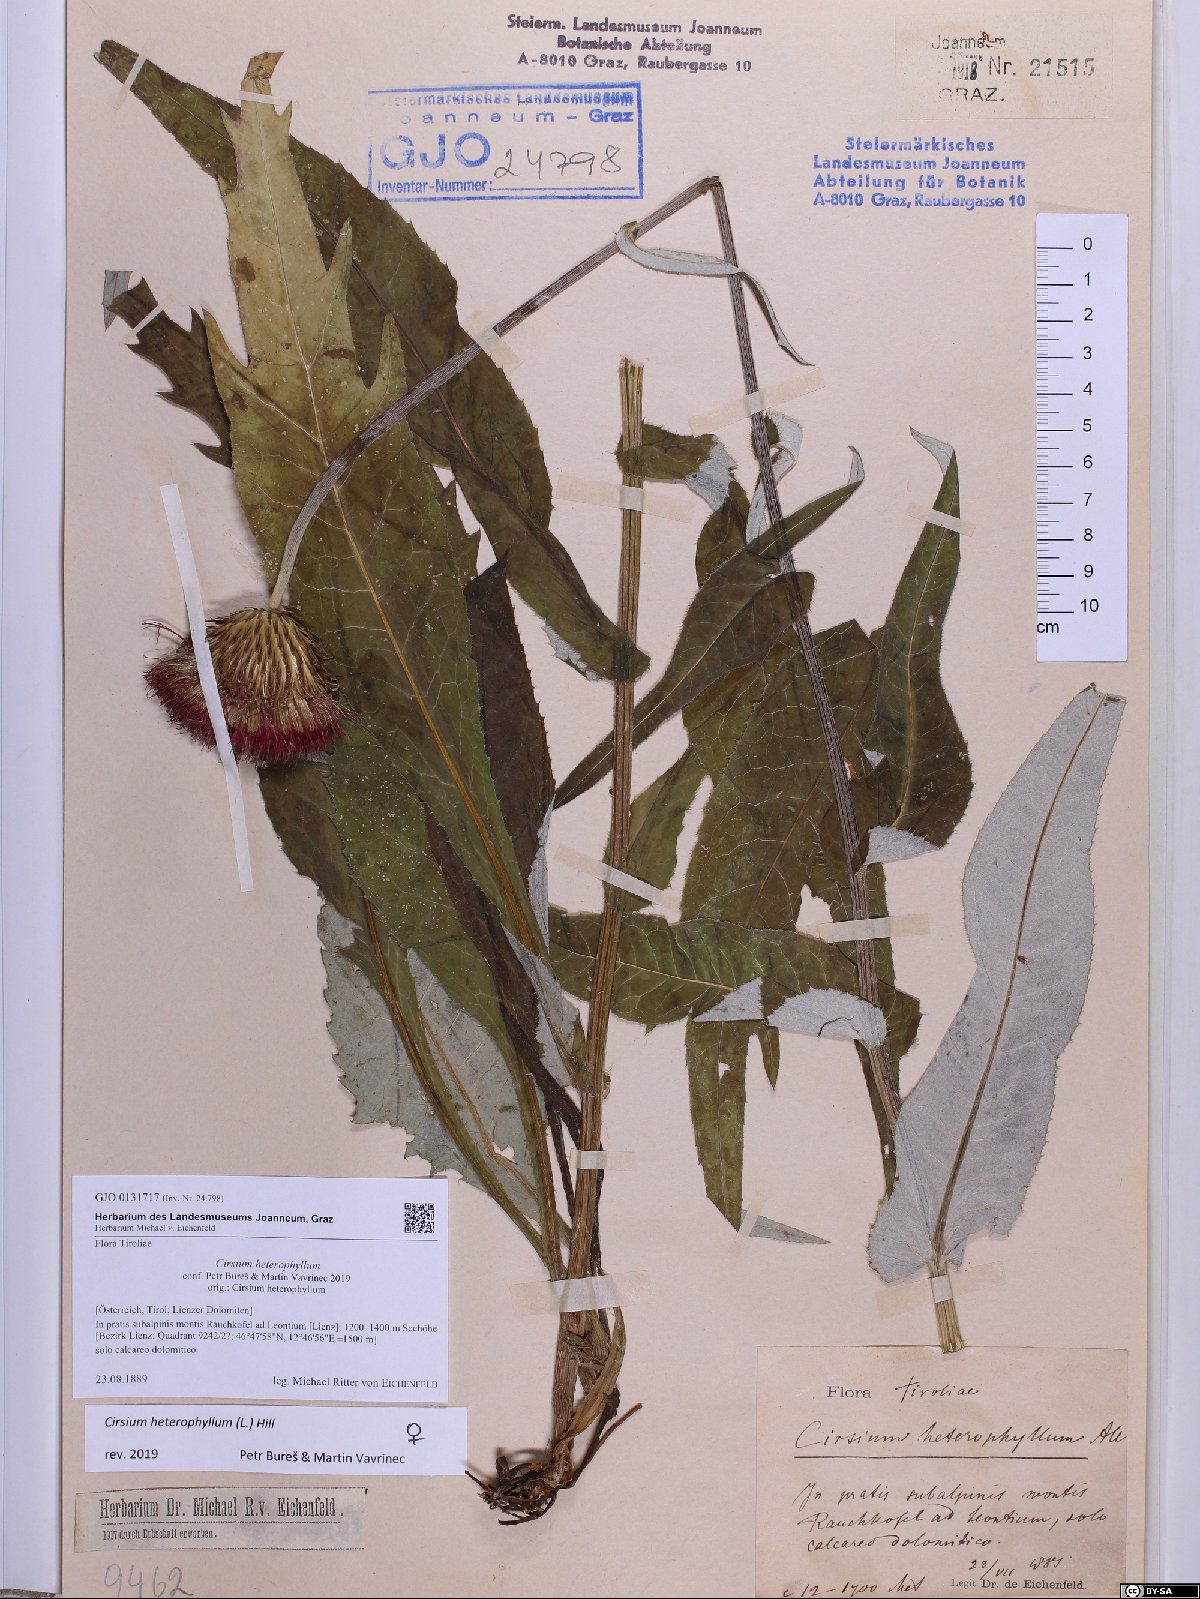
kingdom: Plantae
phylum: Tracheophyta
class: Magnoliopsida
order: Asterales
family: Asteraceae
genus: Cirsium
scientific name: Cirsium heterophyllum
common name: Melancholy thistle
